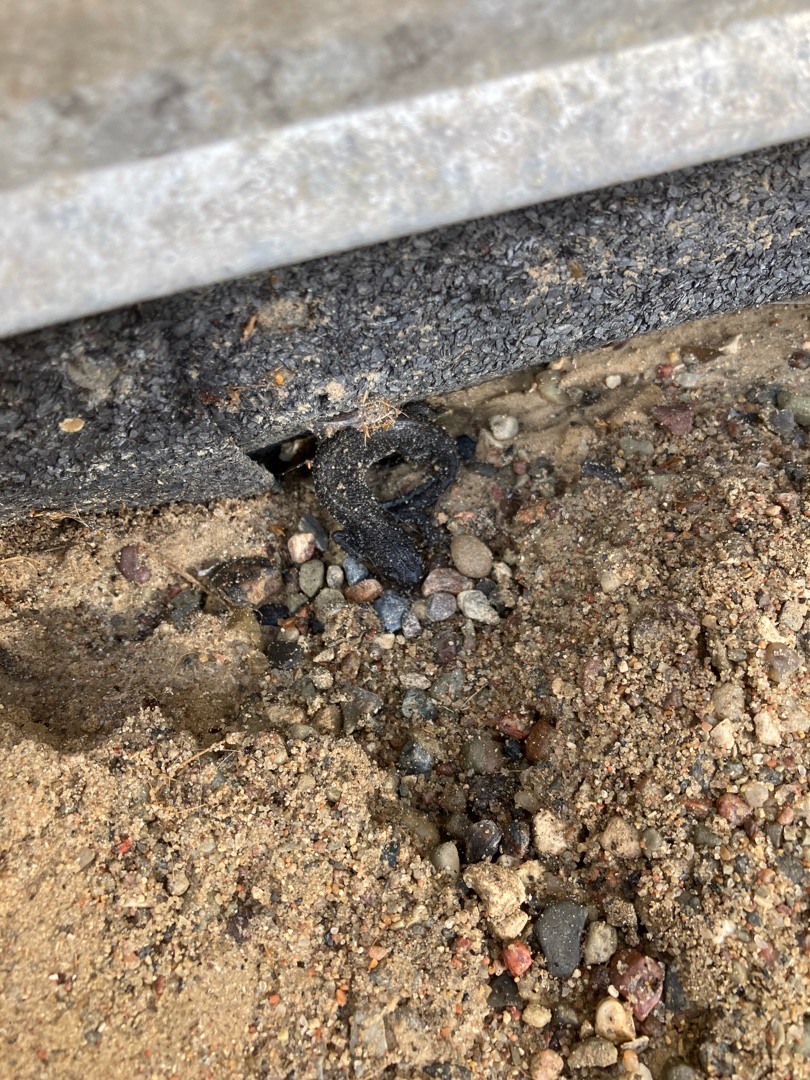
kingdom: Animalia
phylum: Chordata
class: Amphibia
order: Caudata
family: Salamandridae
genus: Triturus
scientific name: Triturus cristatus
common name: Stor vandsalamander
